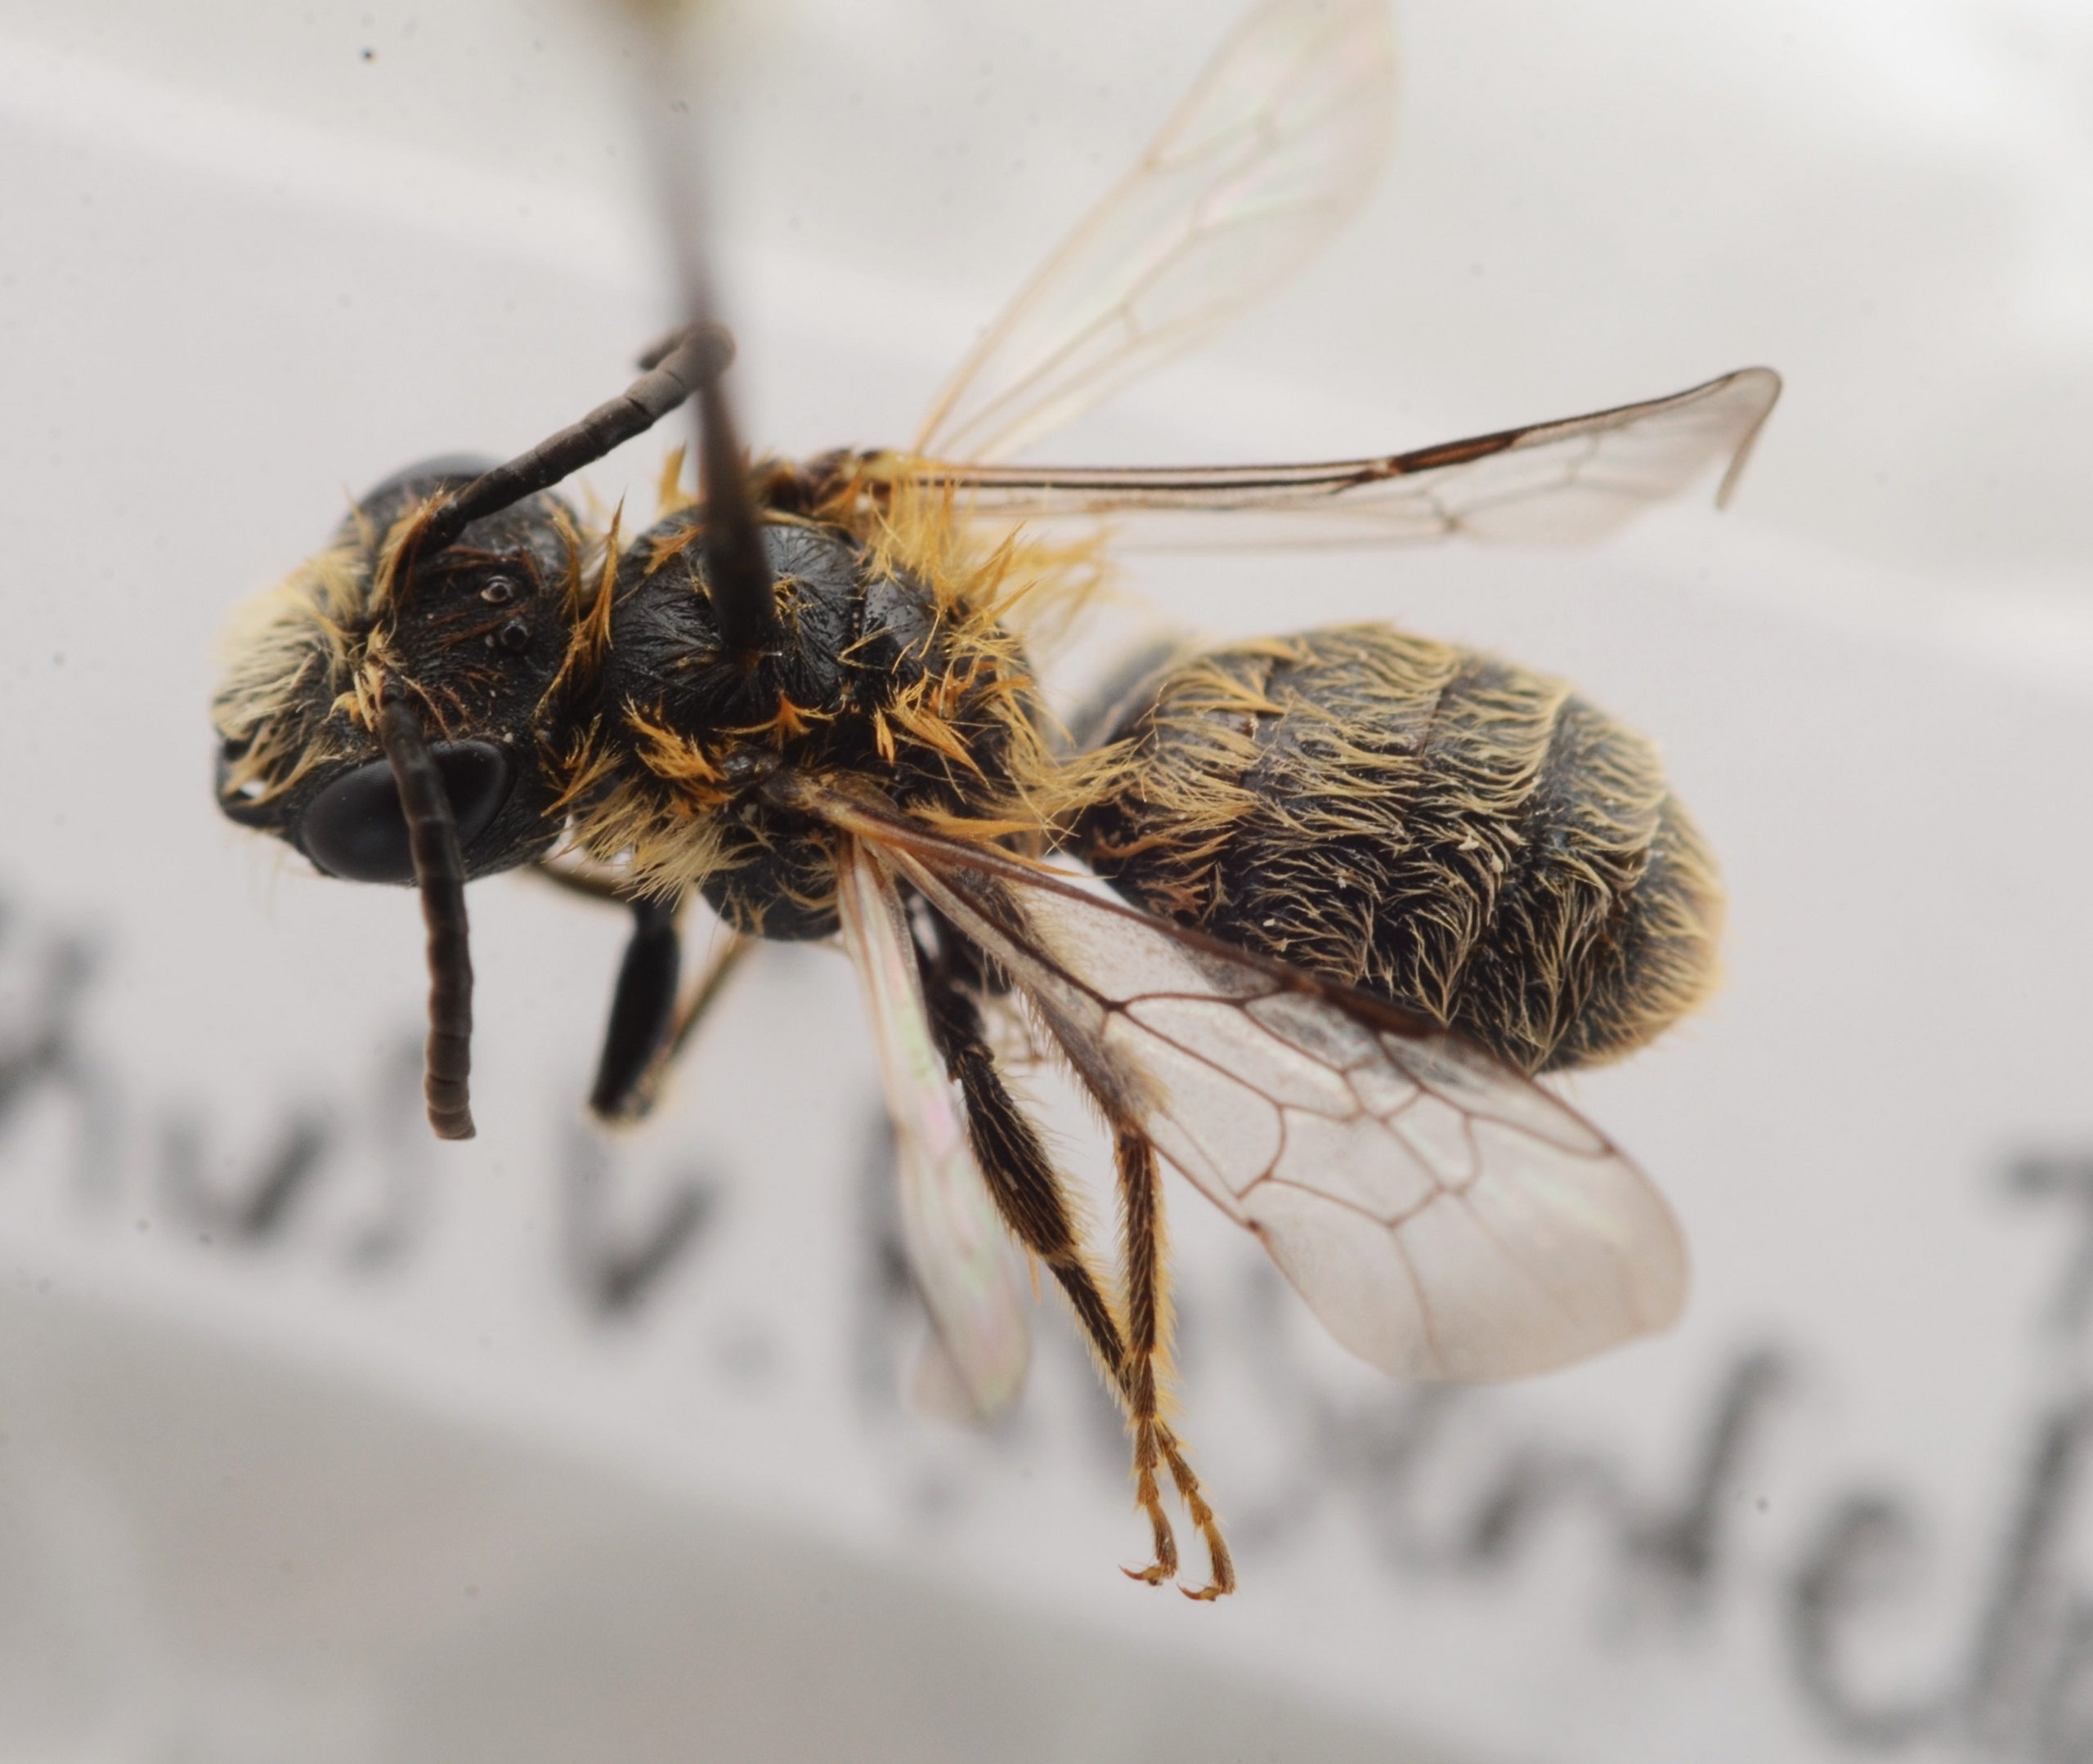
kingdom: Animalia
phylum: Arthropoda
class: Insecta
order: Hymenoptera
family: Andrenidae
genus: Andrena
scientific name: Andrena nigriceps
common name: Mørk sommerjordbi
